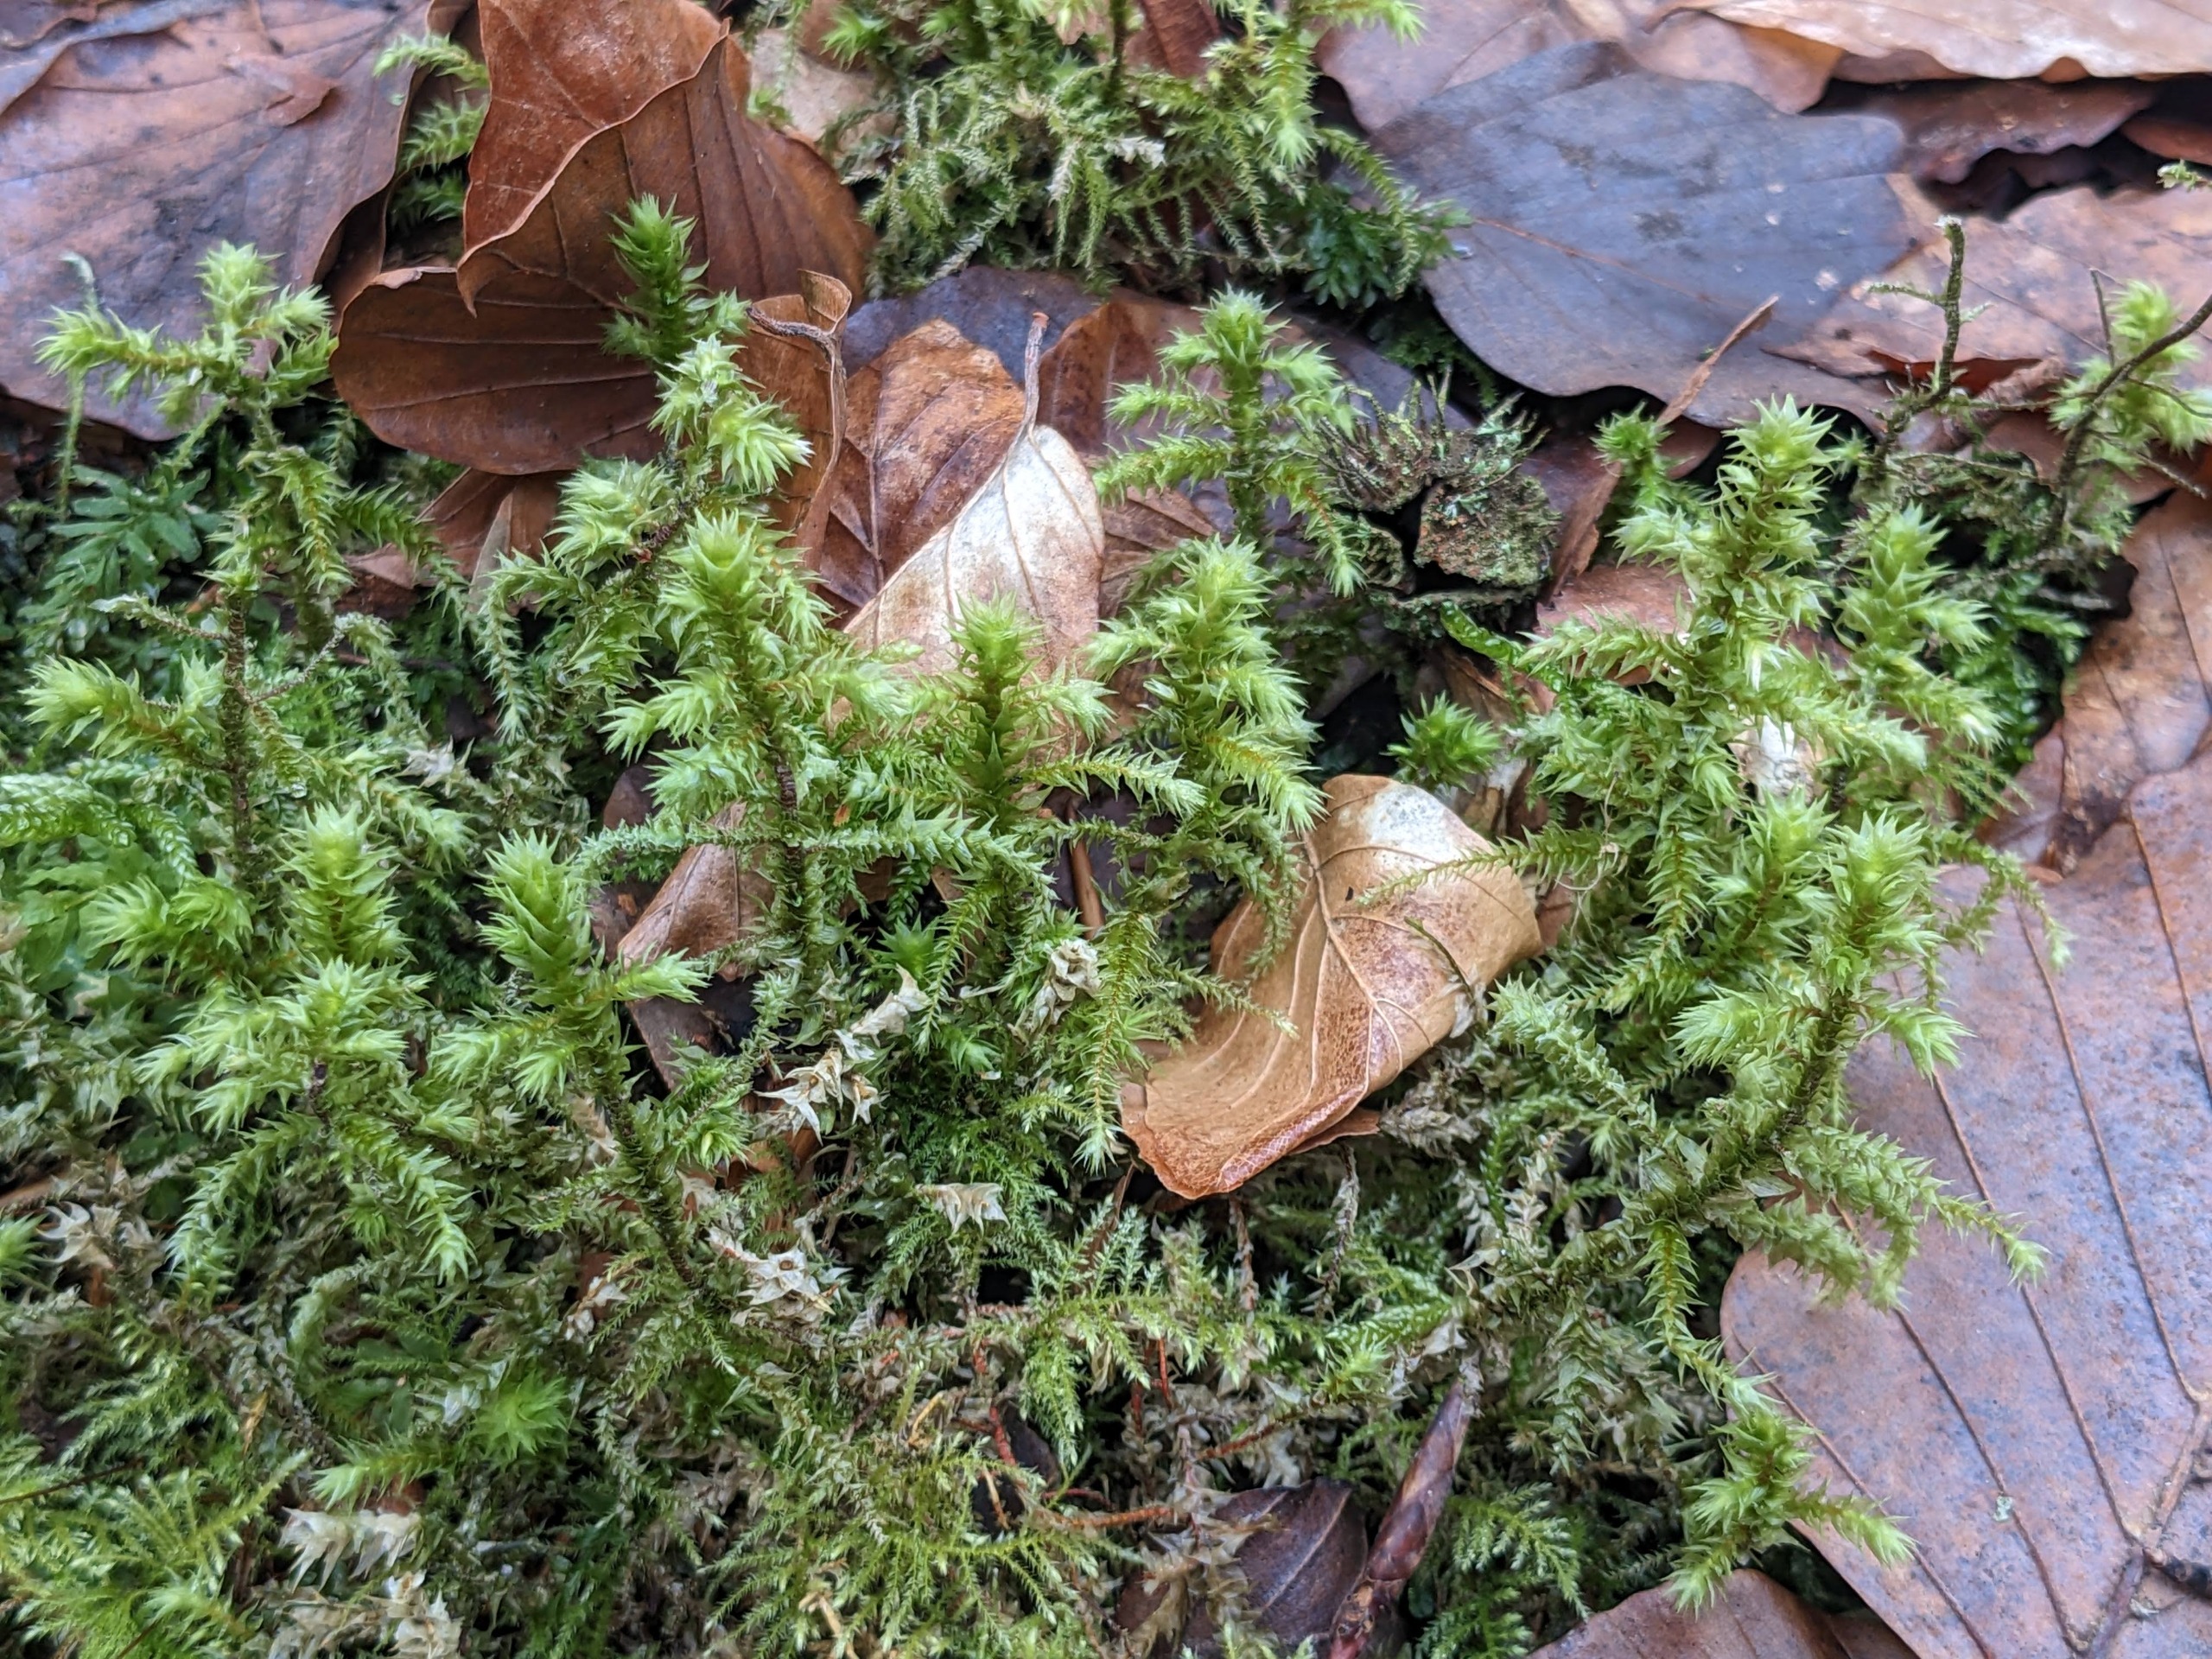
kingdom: Plantae
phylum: Bryophyta
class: Bryopsida
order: Hypnales
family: Hylocomiaceae
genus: Hylocomiadelphus
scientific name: Hylocomiadelphus triquetrus
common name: Stor kransemos
